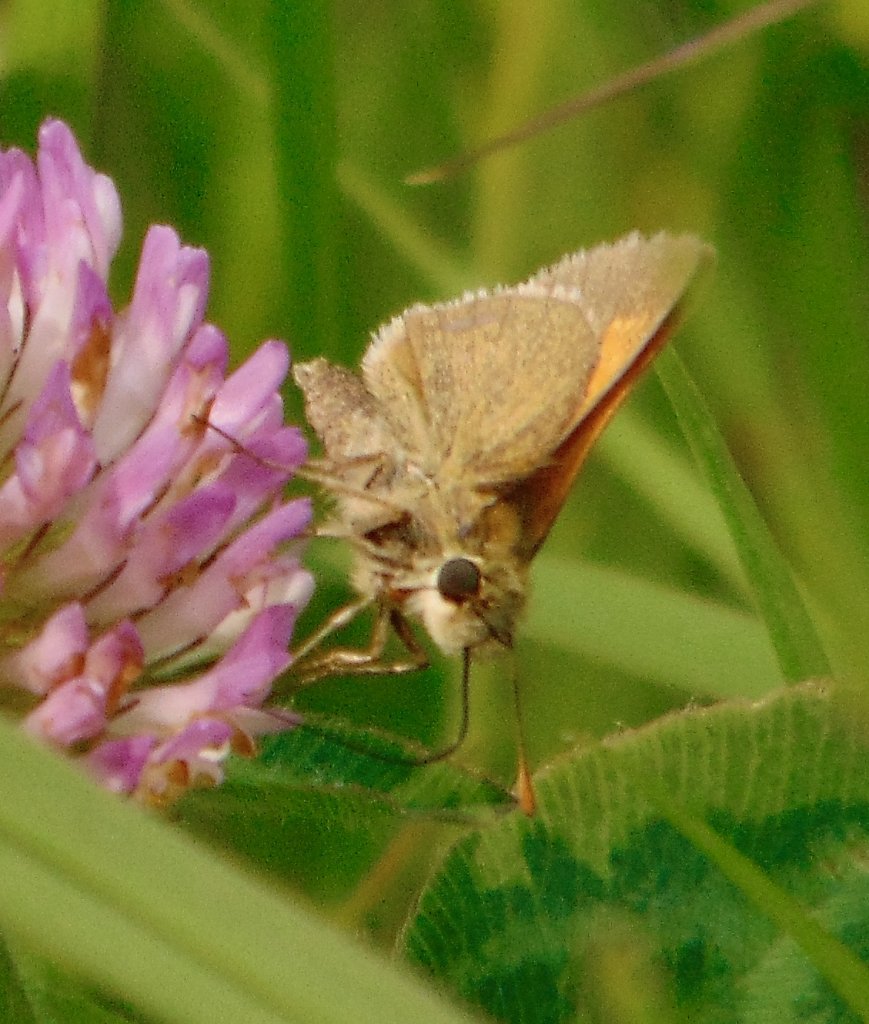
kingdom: Animalia
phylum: Arthropoda
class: Insecta
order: Lepidoptera
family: Hesperiidae
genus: Polites
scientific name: Polites themistocles
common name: Tawny-edged Skipper
